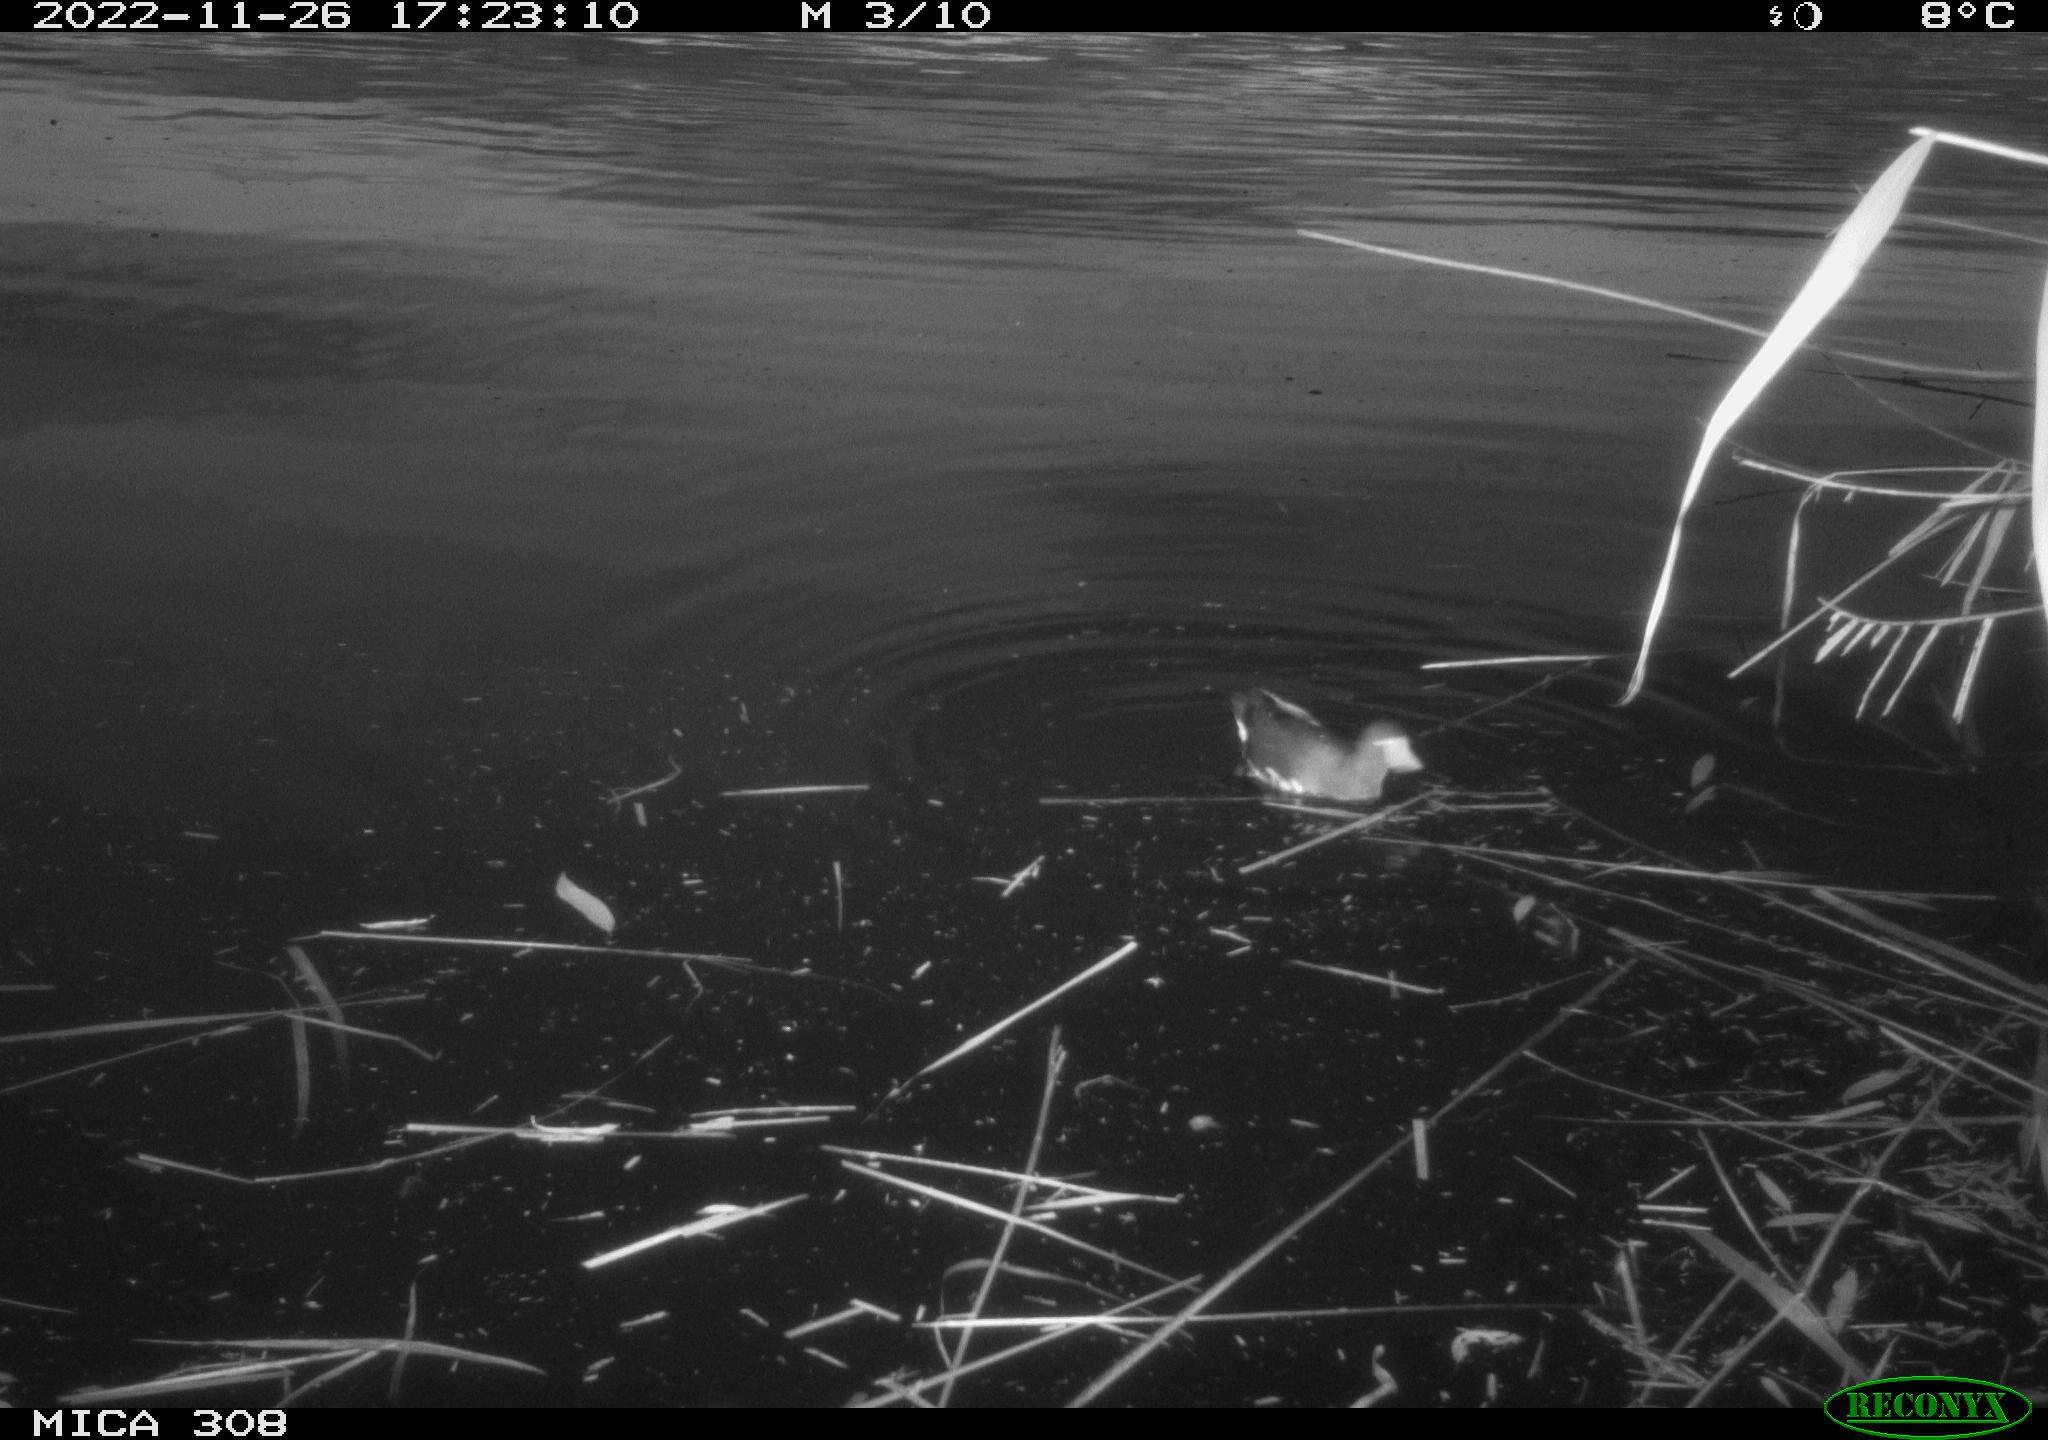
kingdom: Animalia
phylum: Chordata
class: Aves
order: Gruiformes
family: Rallidae
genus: Gallinula
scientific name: Gallinula chloropus
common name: Common moorhen
